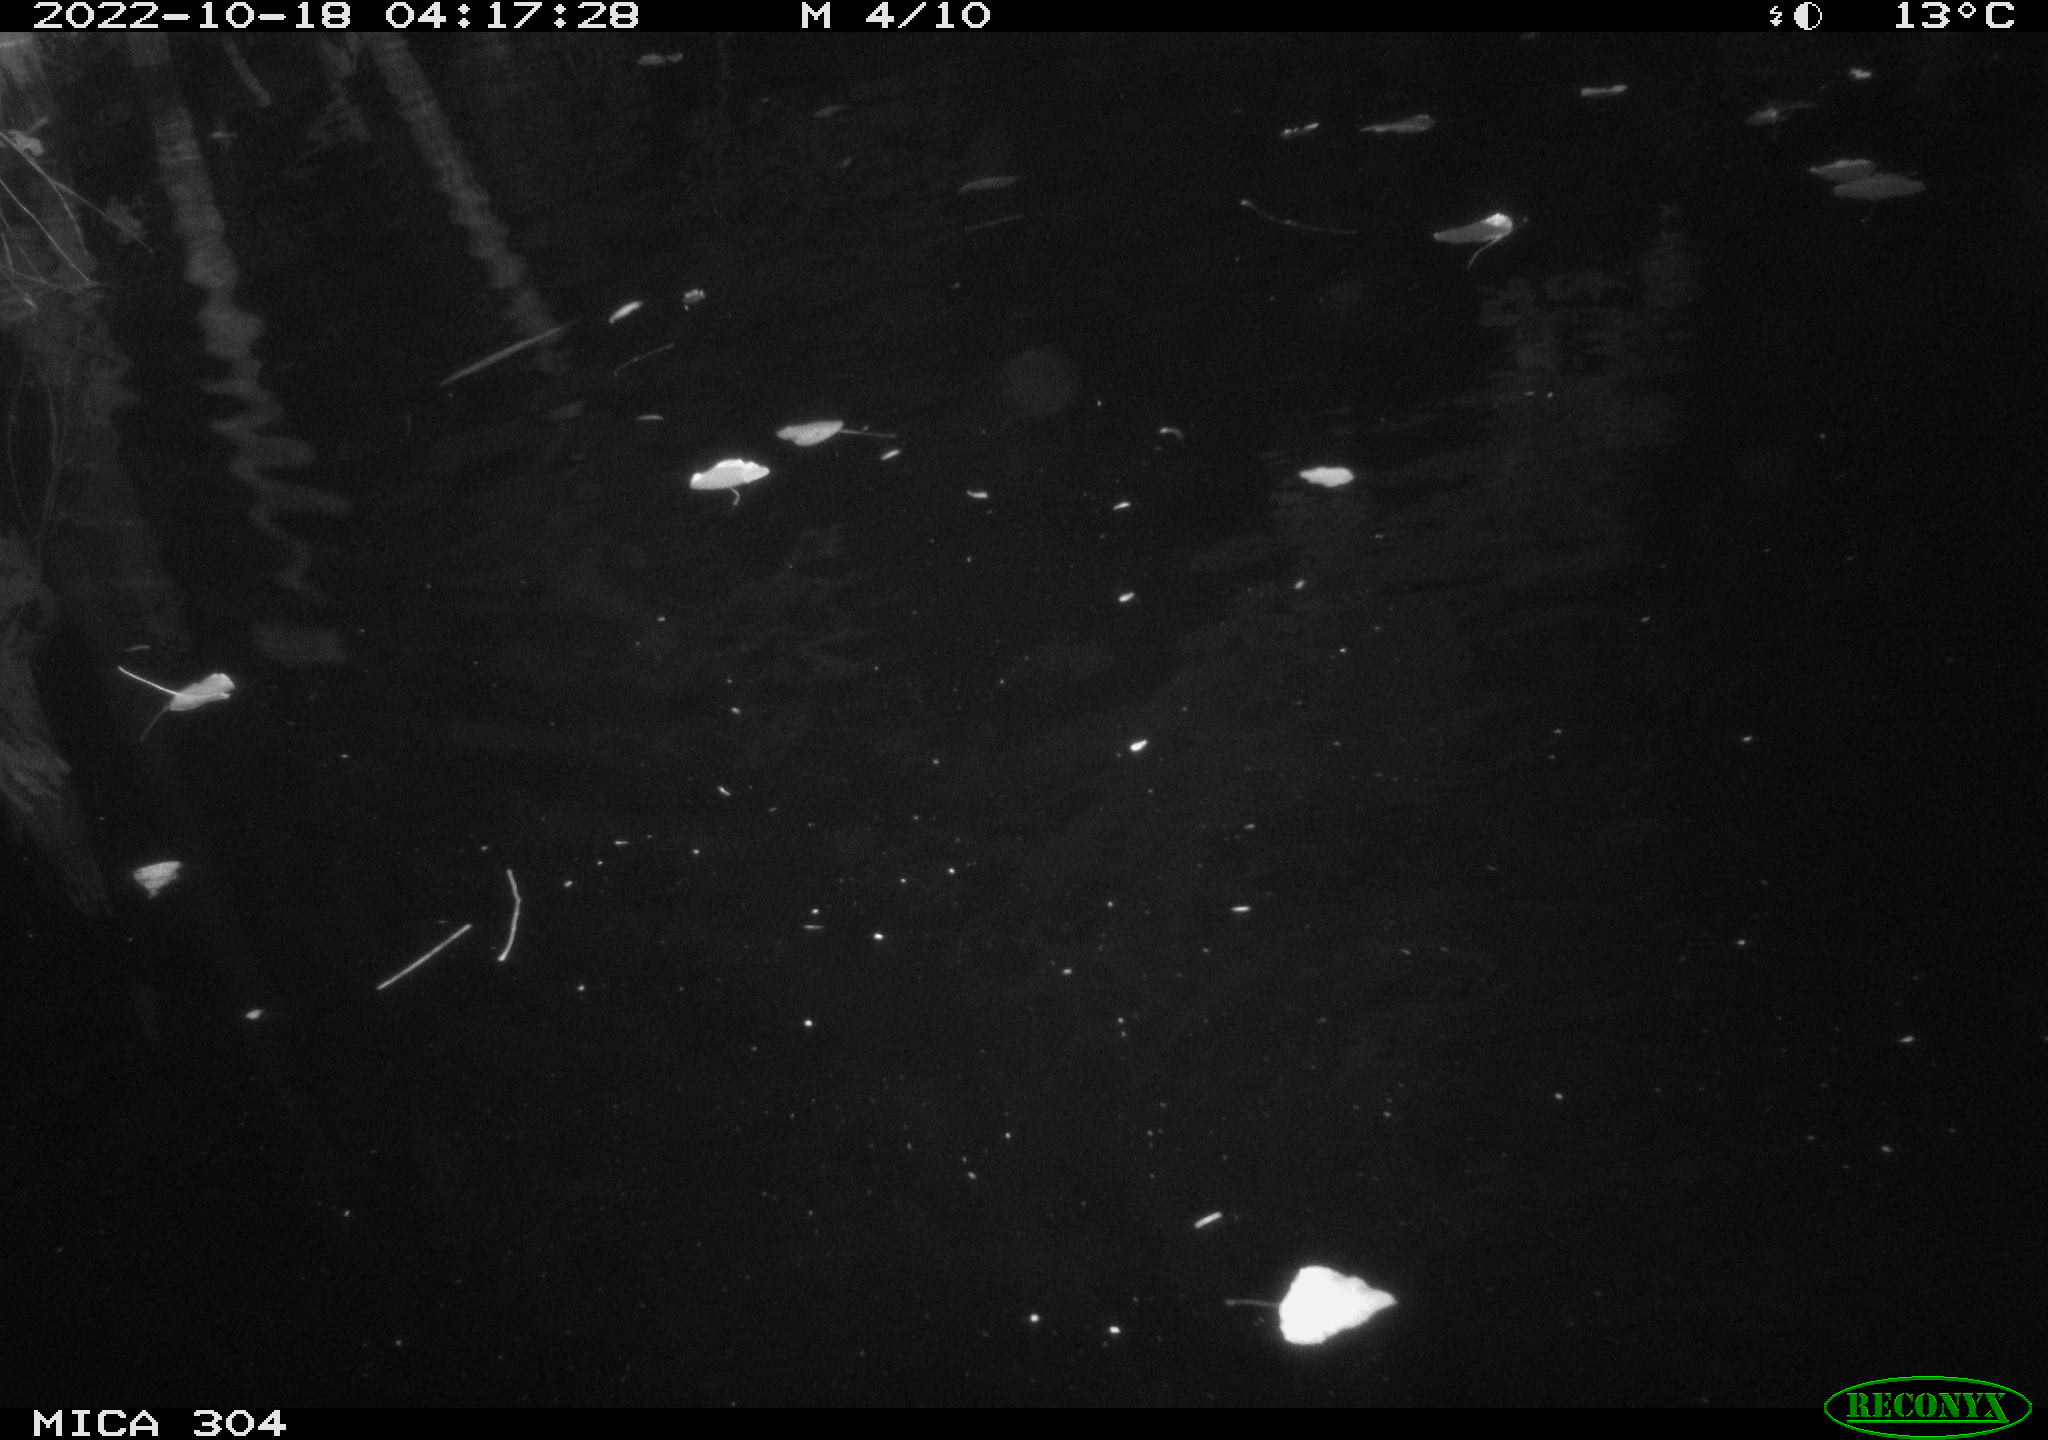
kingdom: Animalia
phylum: Chordata
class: Mammalia
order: Rodentia
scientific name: Rodentia
